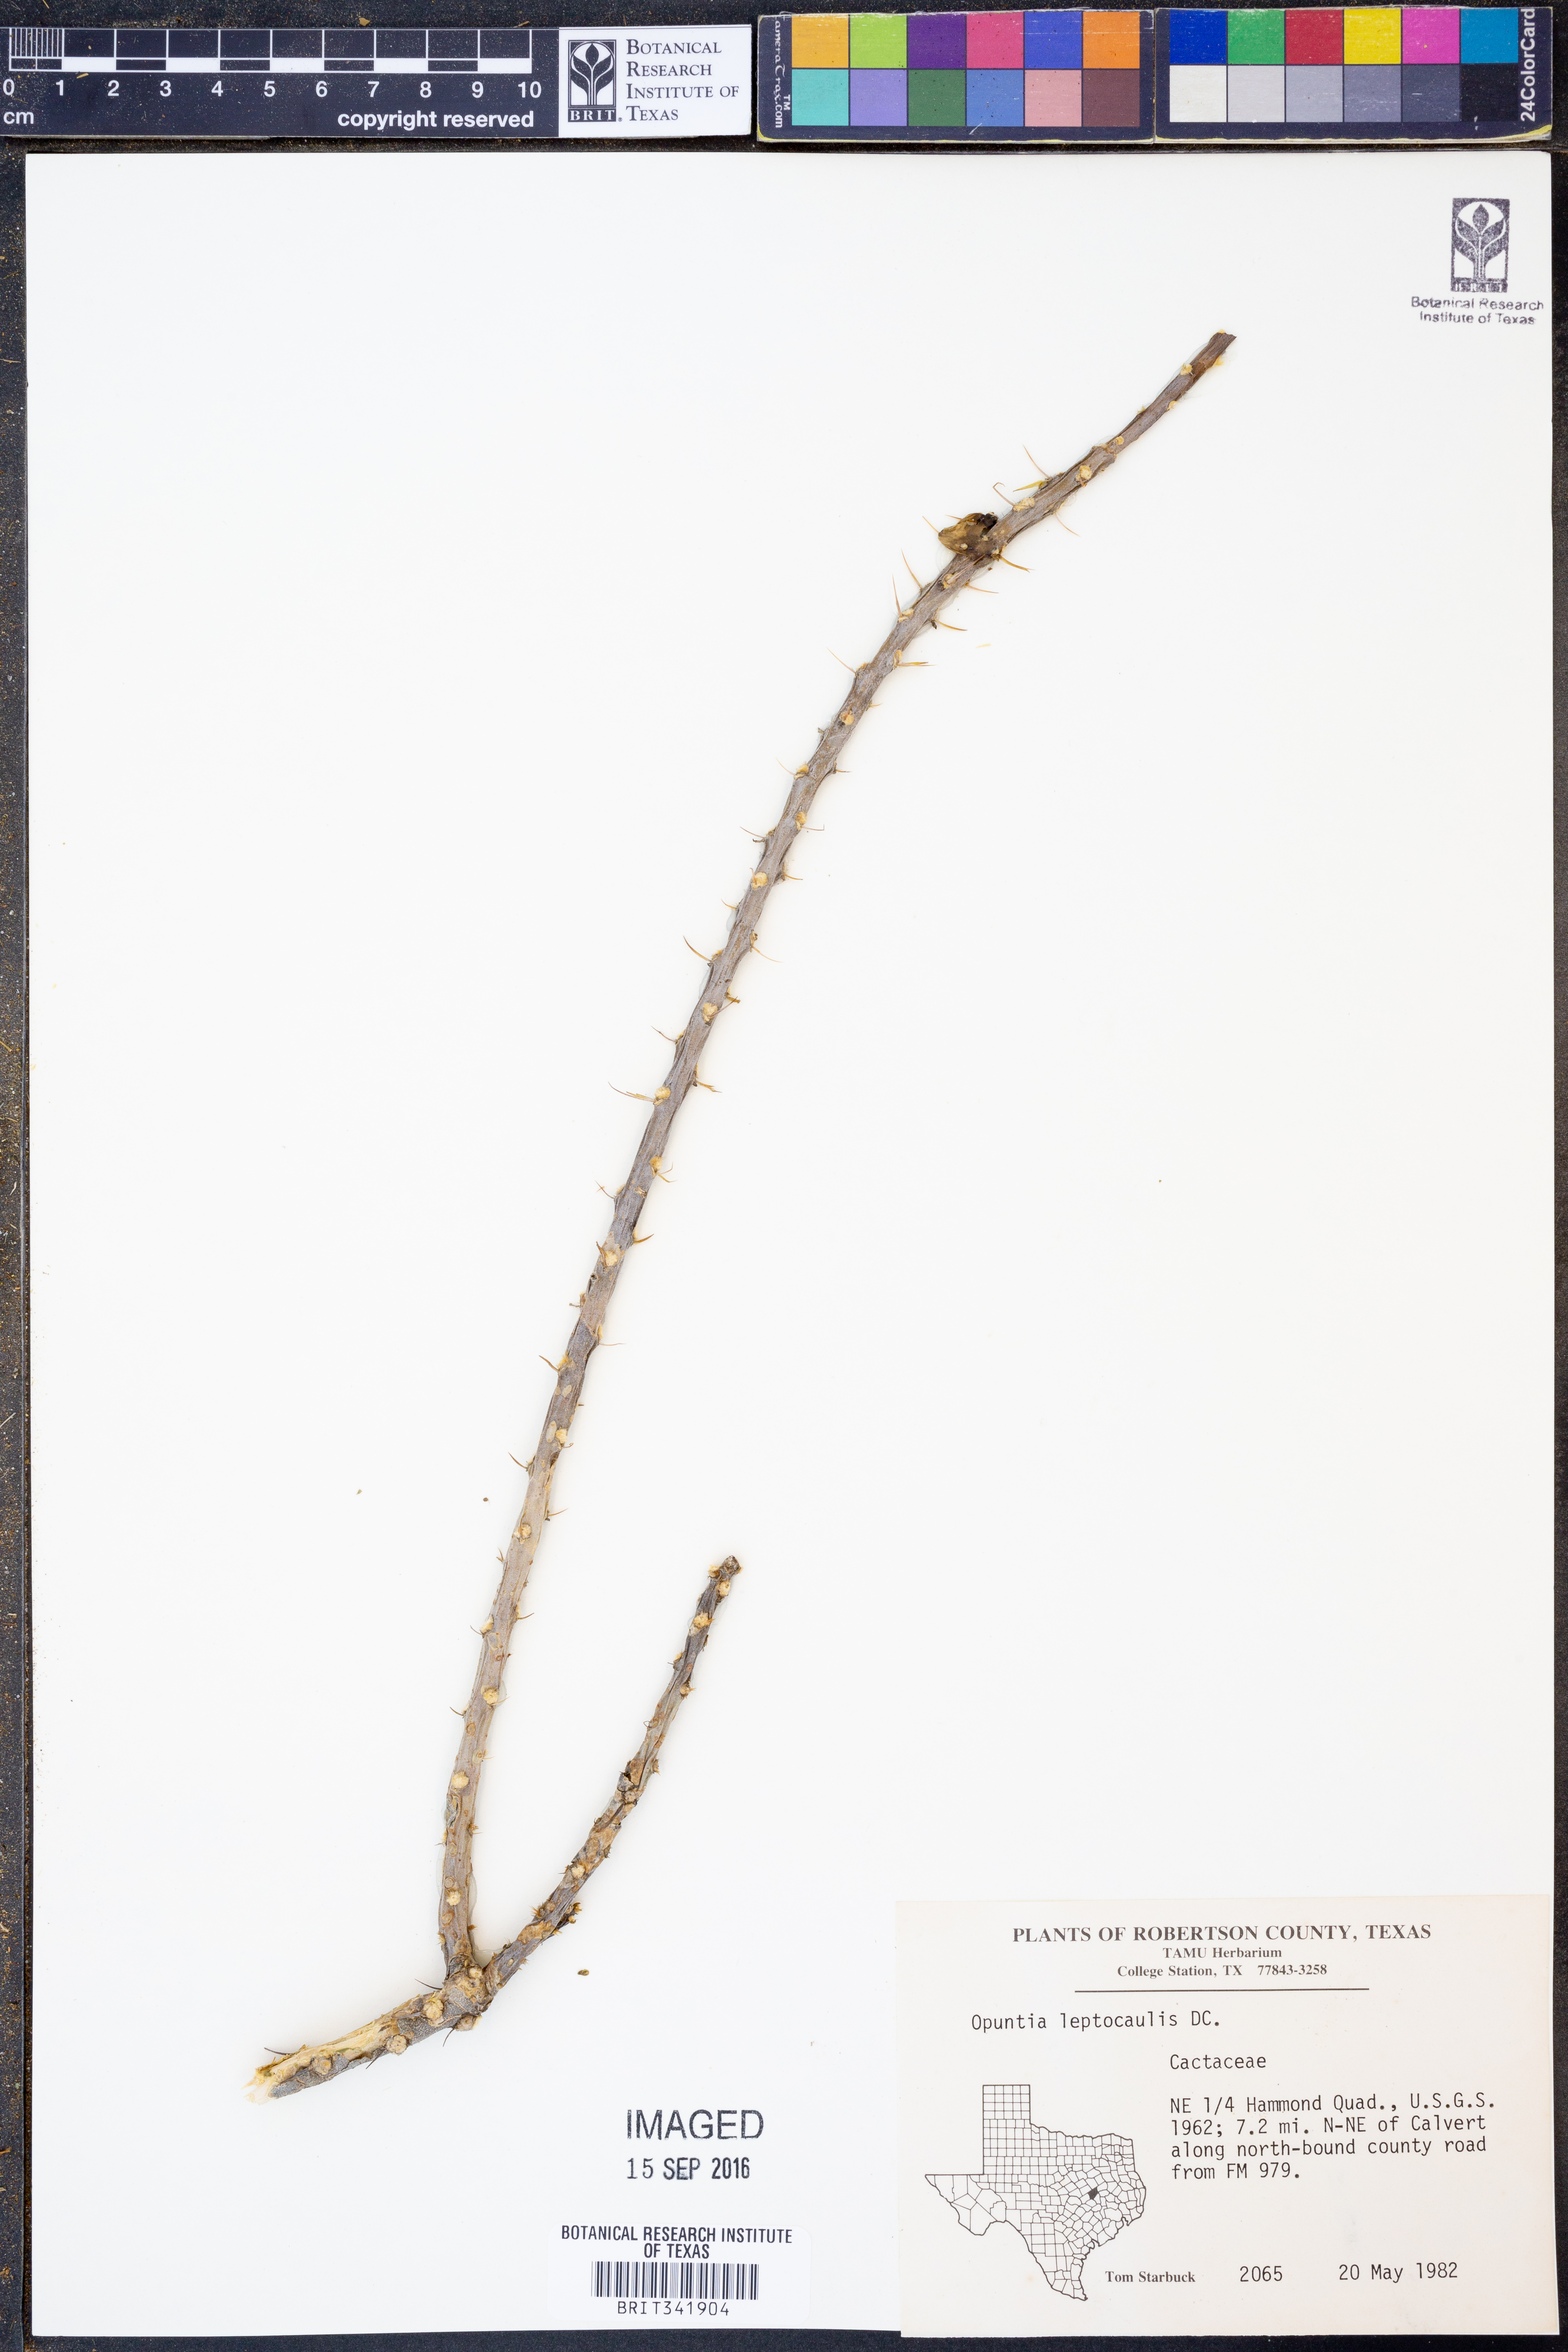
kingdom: Plantae
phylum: Tracheophyta
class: Magnoliopsida
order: Caryophyllales
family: Cactaceae
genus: Cylindropuntia
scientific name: Cylindropuntia leptocaulis
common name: Christmas cactus
